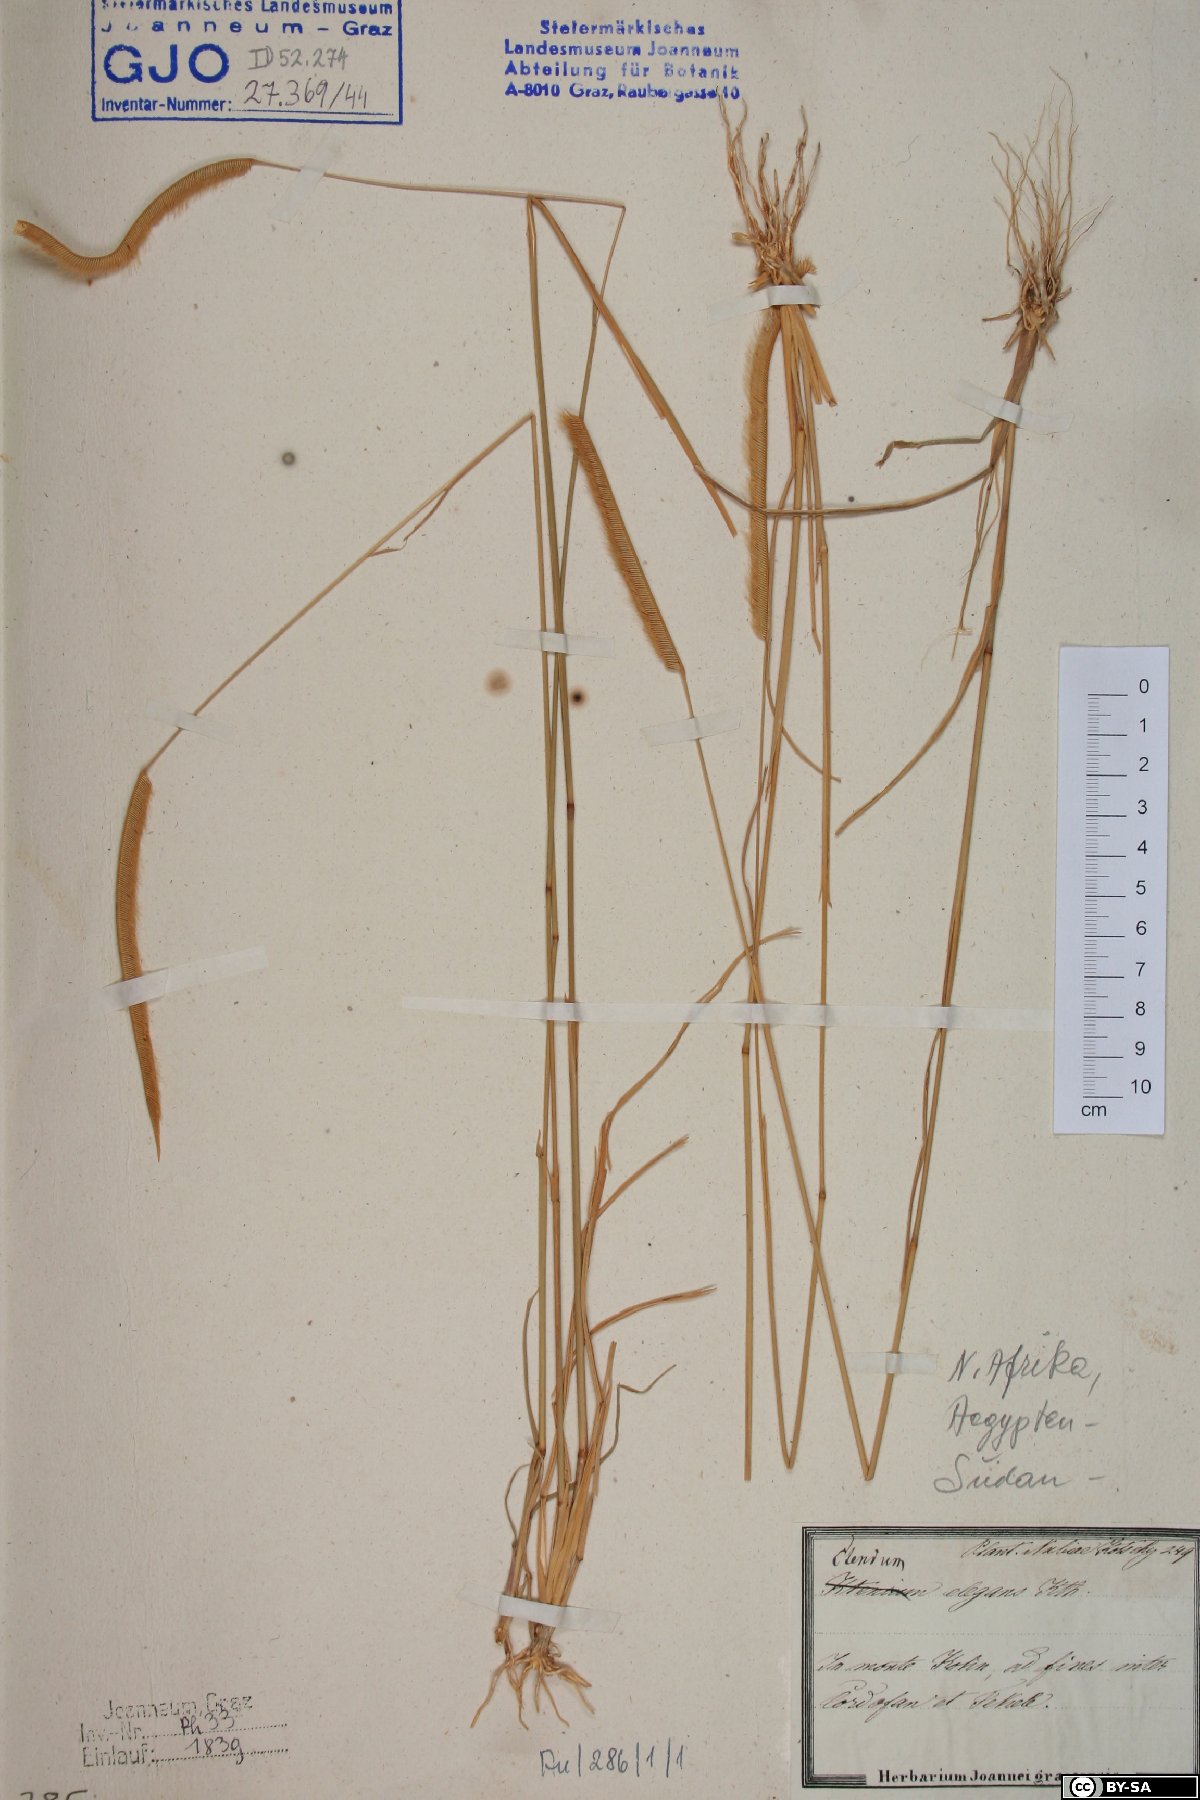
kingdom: Plantae
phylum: Tracheophyta
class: Liliopsida
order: Poales
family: Poaceae
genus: Ctenium
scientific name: Ctenium elegans
